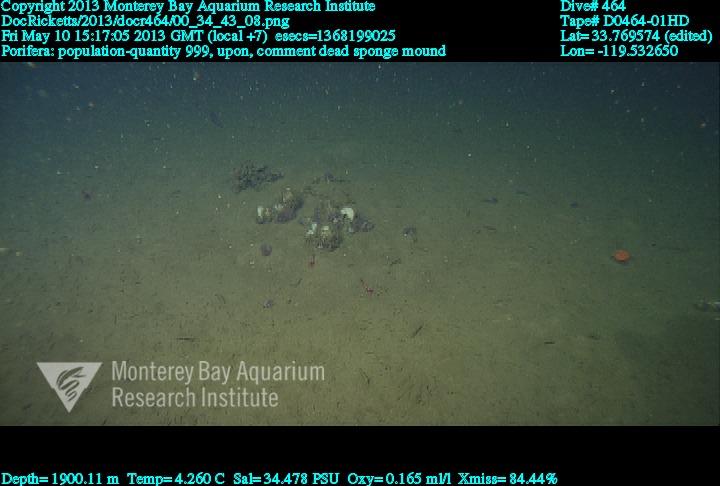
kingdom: Animalia
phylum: Porifera
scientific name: Porifera
